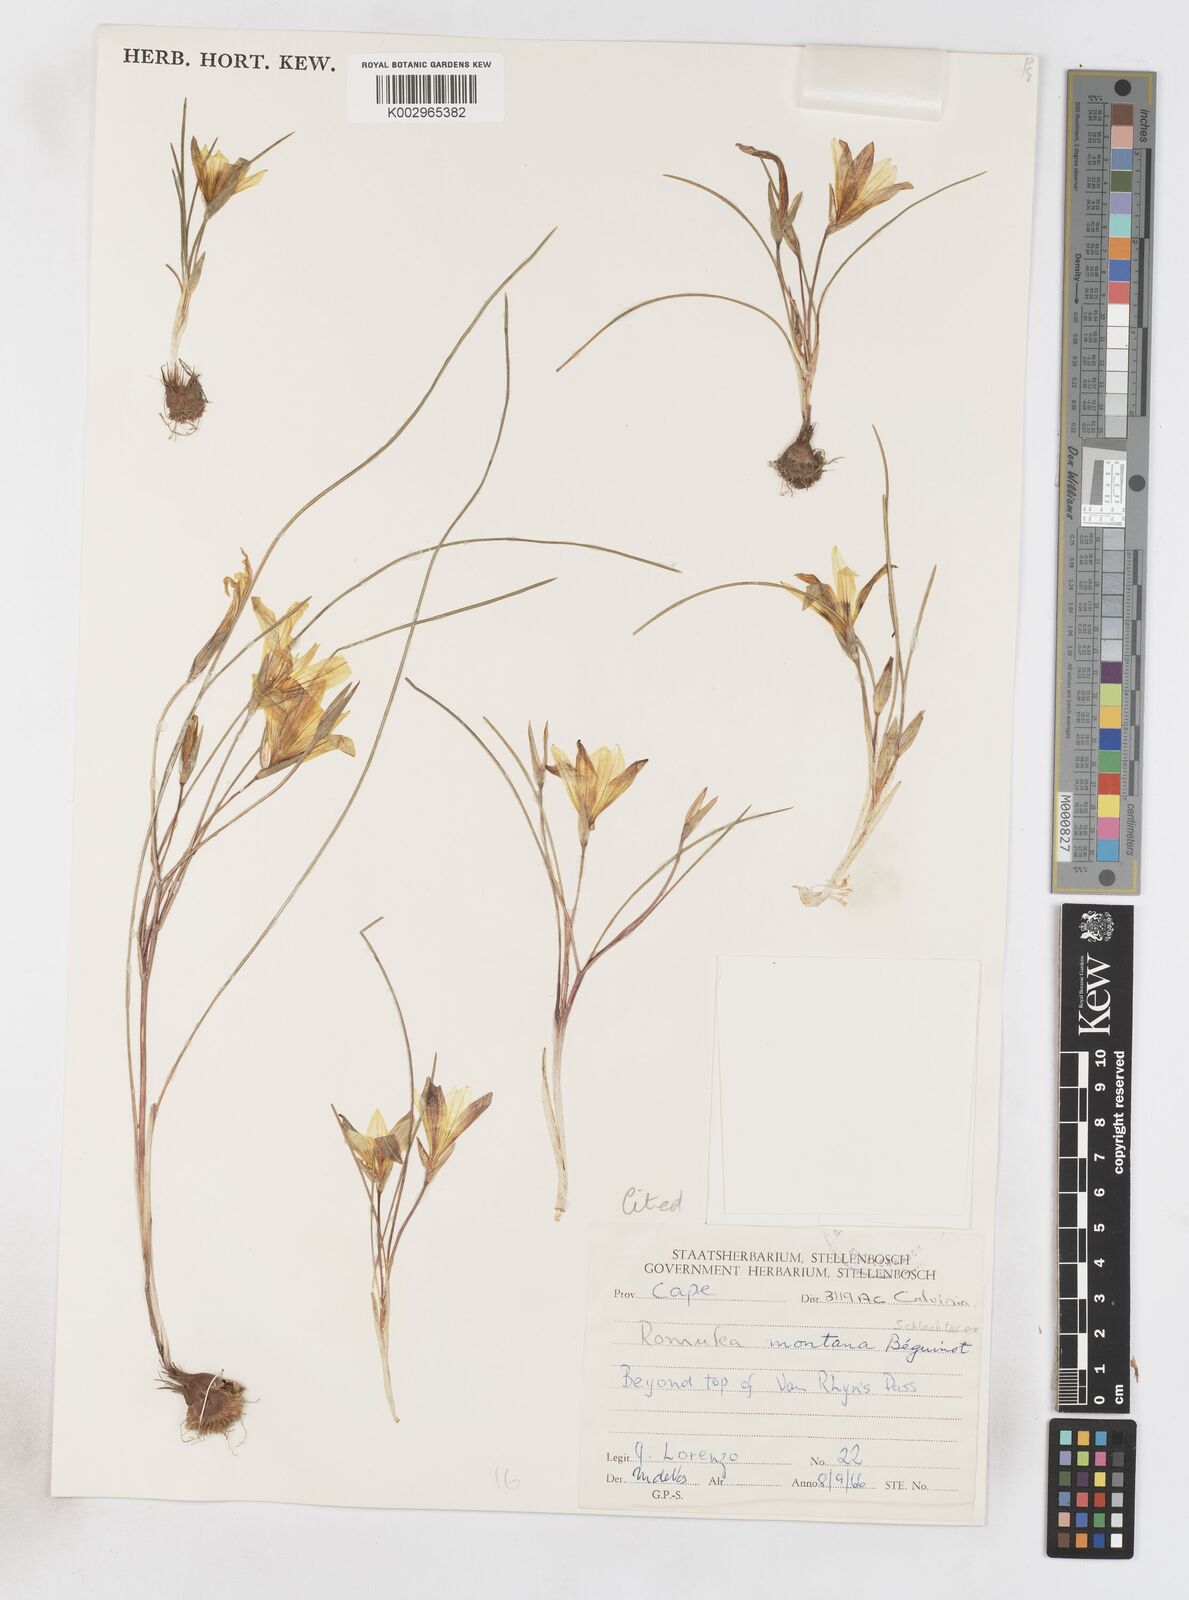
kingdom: Plantae
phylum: Tracheophyta
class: Liliopsida
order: Asparagales
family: Iridaceae
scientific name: Iridaceae
